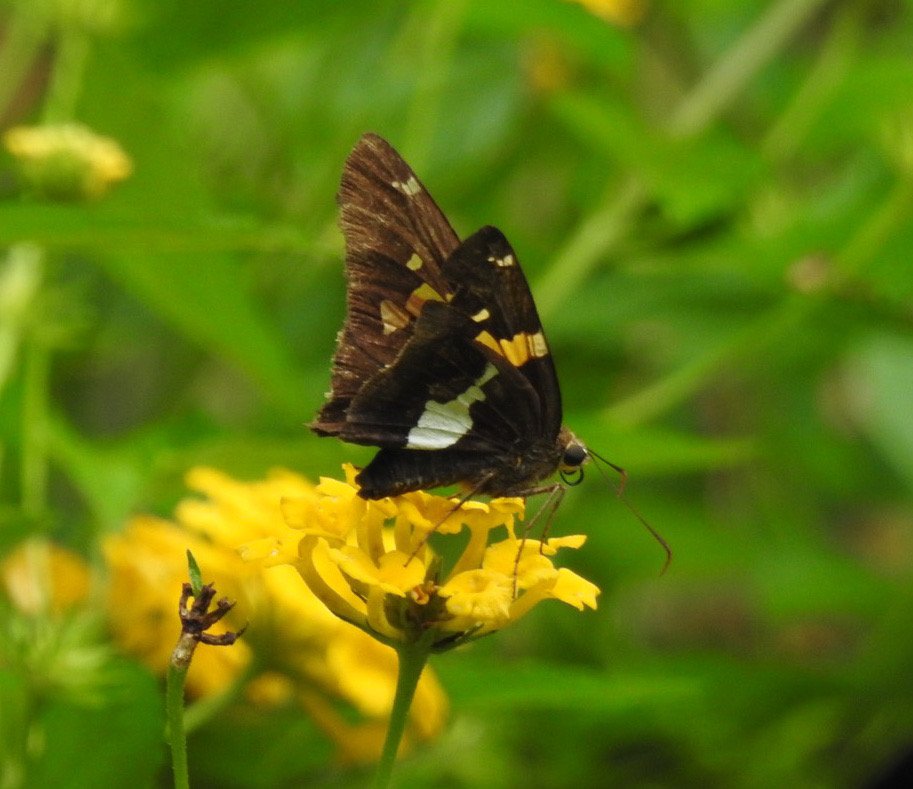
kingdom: Animalia
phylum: Arthropoda
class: Insecta
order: Lepidoptera
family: Hesperiidae
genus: Epargyreus
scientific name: Epargyreus clarus
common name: Silver-spotted Skipper
